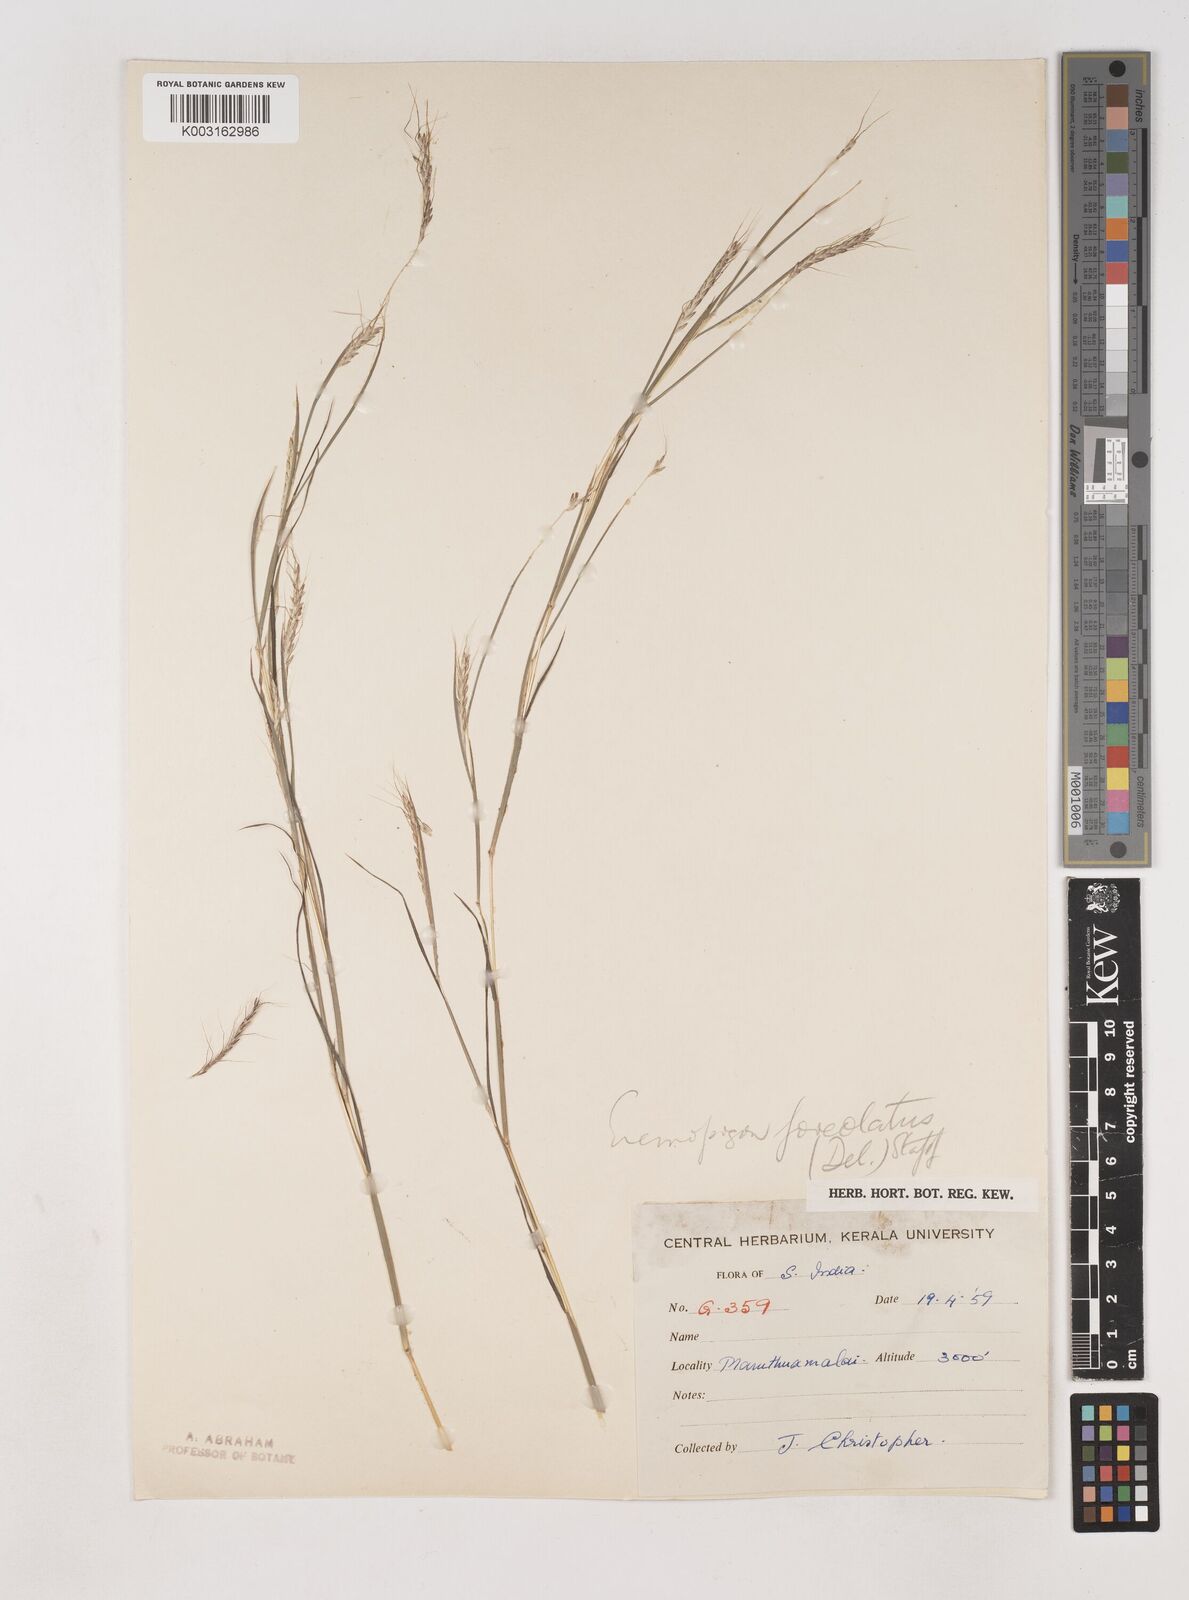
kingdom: Plantae
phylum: Tracheophyta
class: Liliopsida
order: Poales
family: Poaceae
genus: Dichanthium
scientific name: Dichanthium foveolatum
